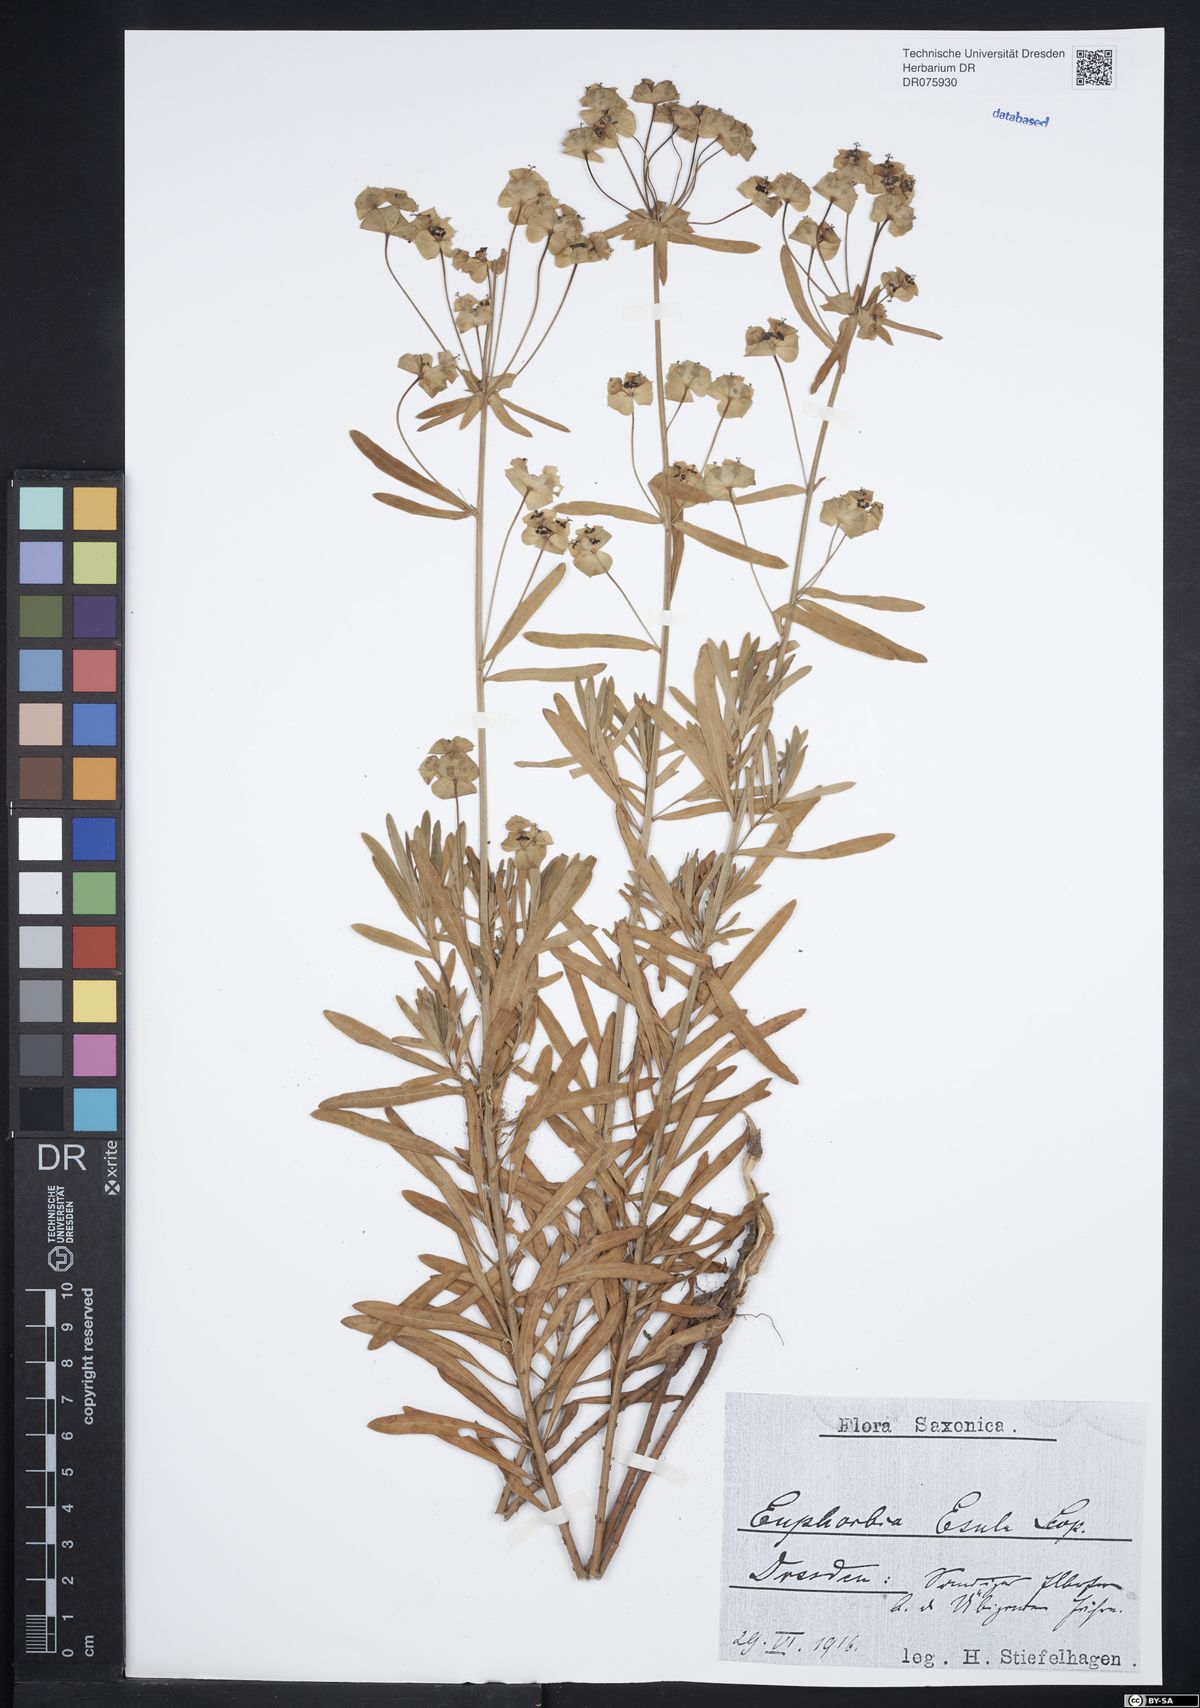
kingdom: Plantae
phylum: Tracheophyta
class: Magnoliopsida
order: Malpighiales
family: Euphorbiaceae
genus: Euphorbia
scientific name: Euphorbia esula
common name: Leafy spurge
